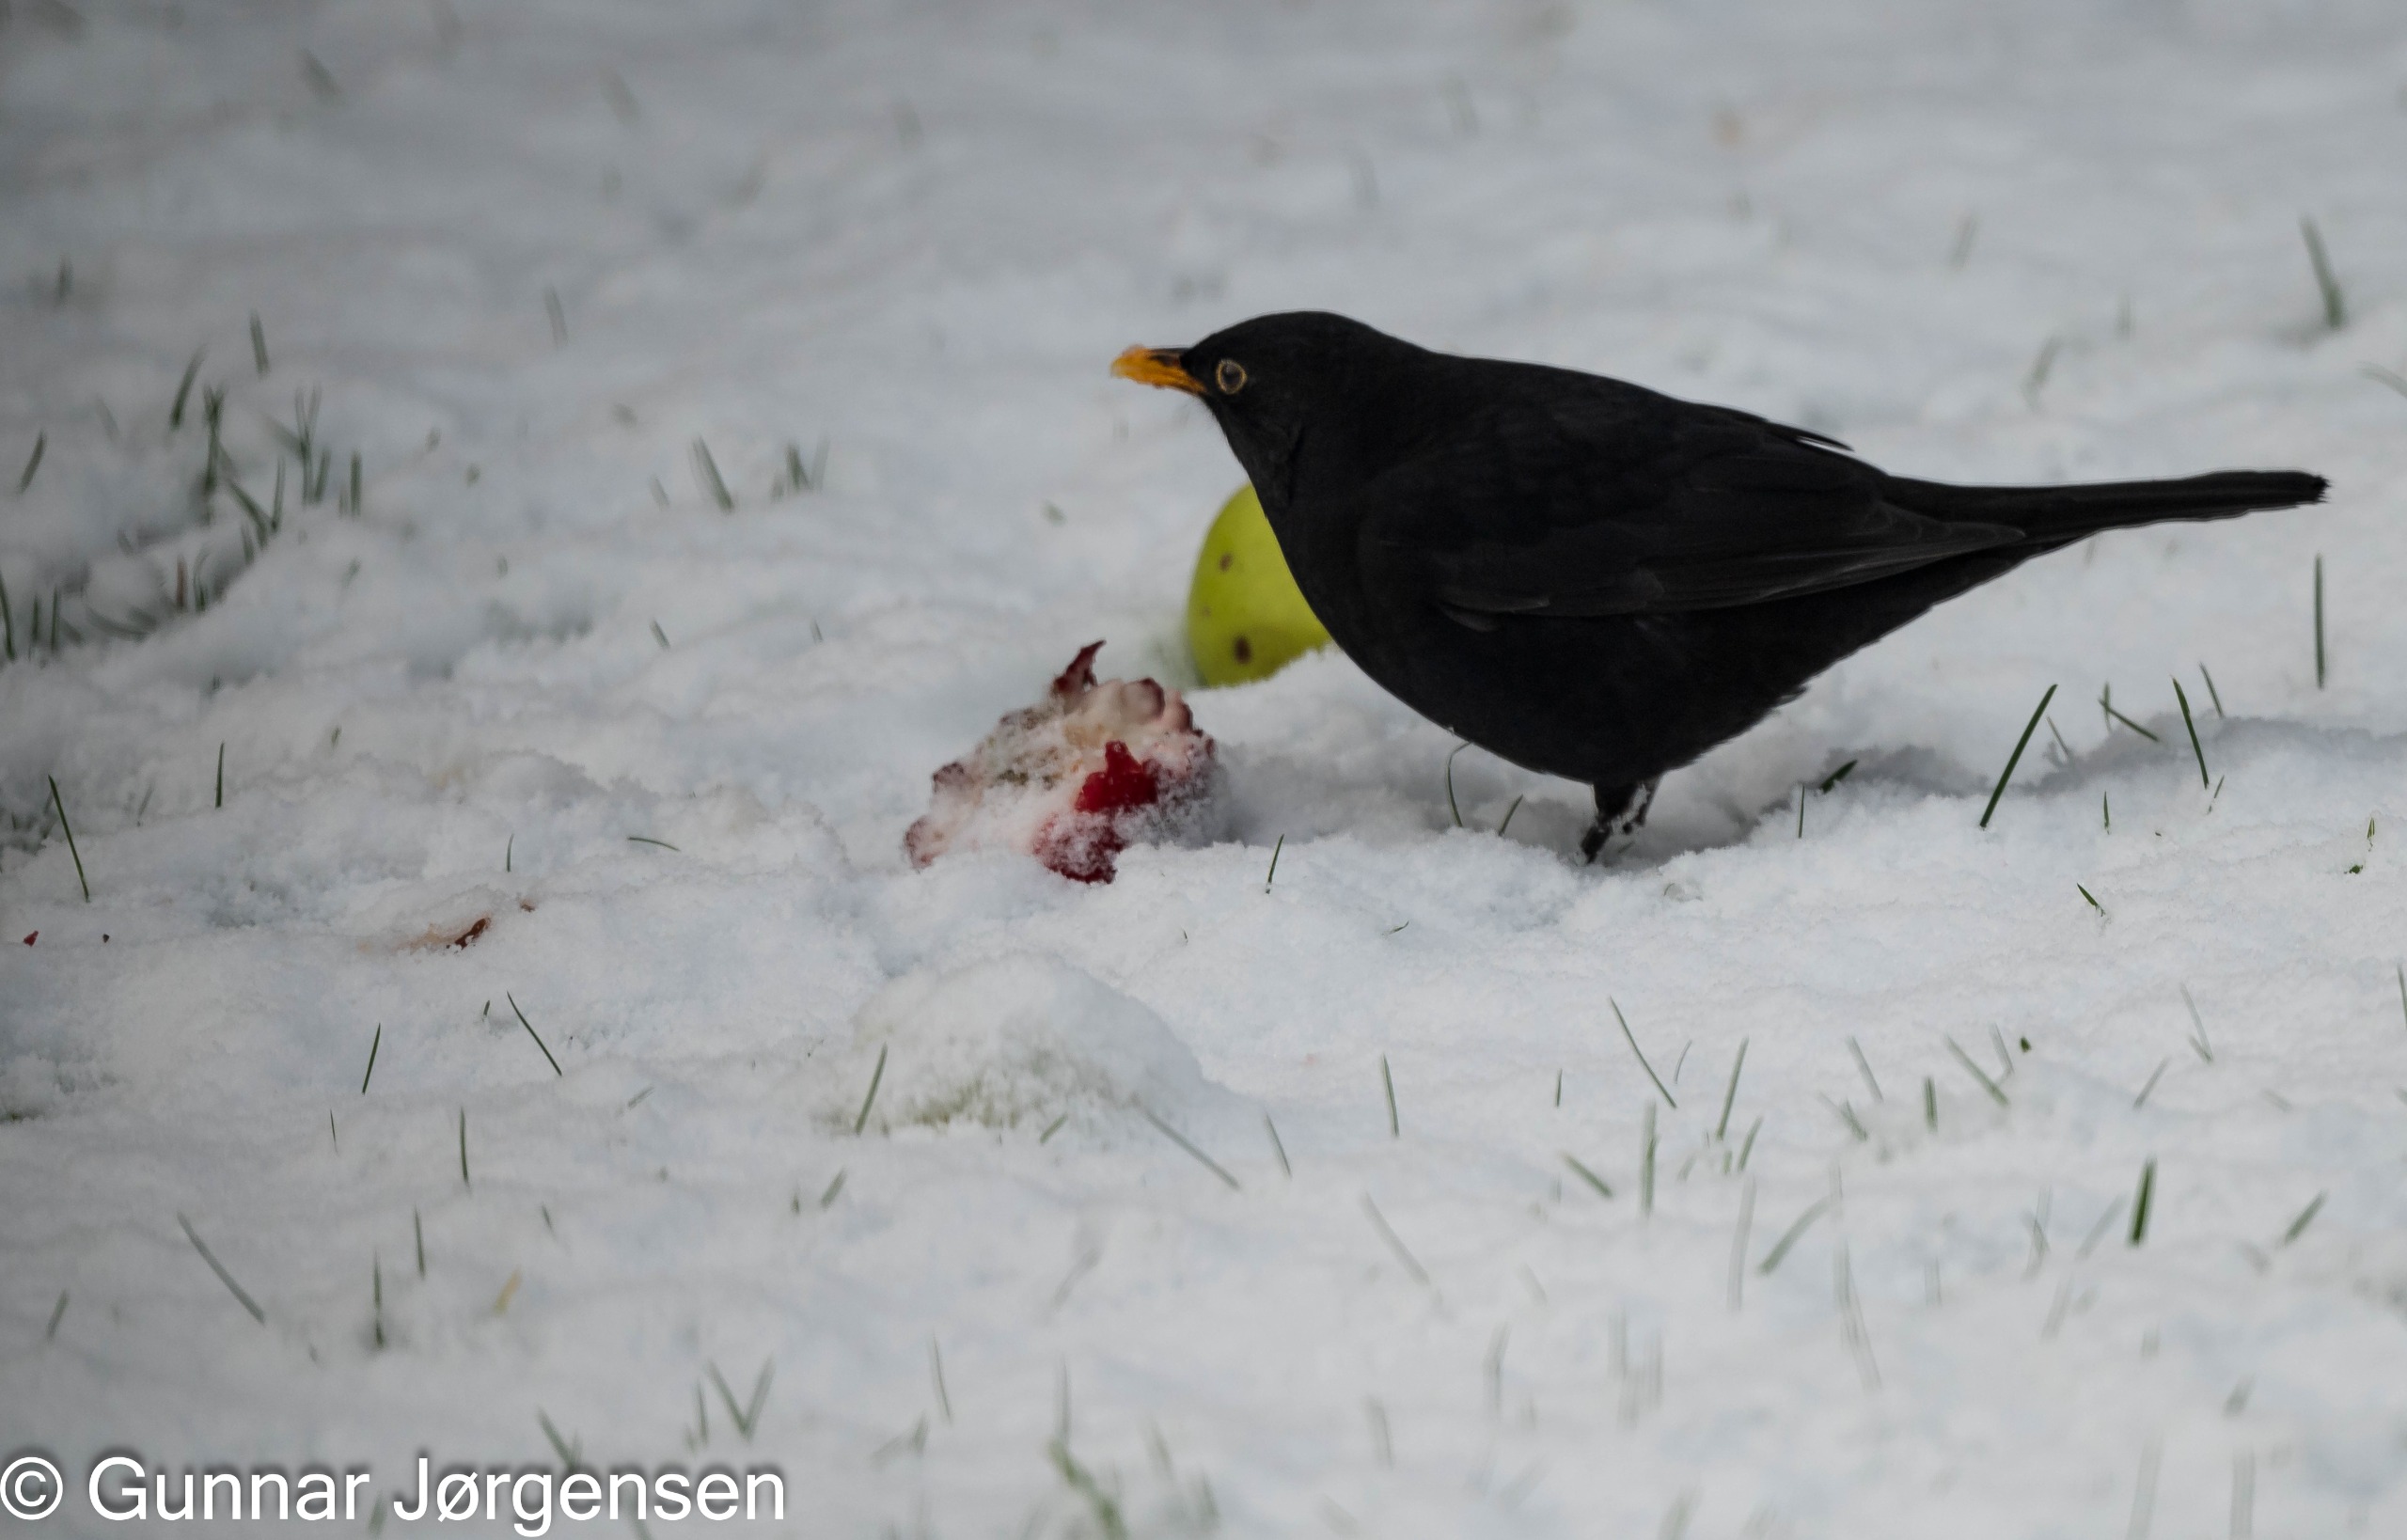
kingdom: Animalia
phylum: Chordata
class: Aves
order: Passeriformes
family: Turdidae
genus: Turdus
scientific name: Turdus merula
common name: Solsort
